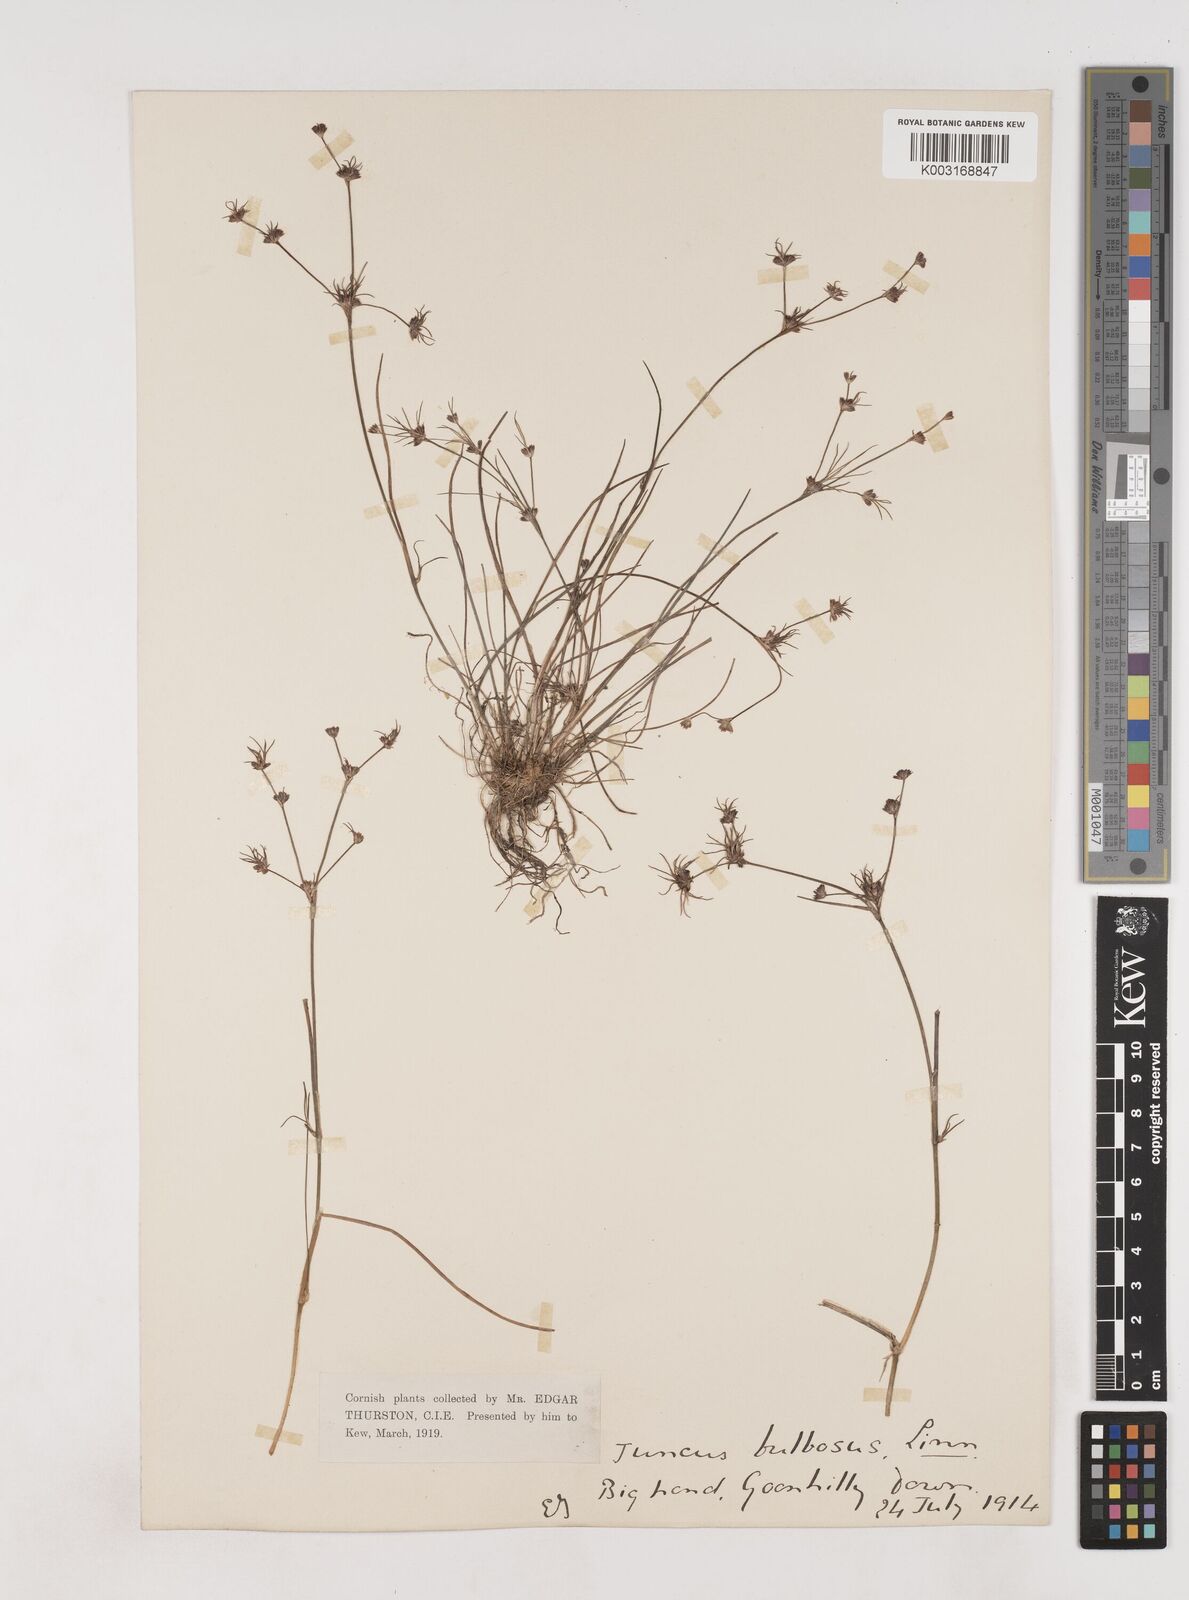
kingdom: Plantae
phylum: Tracheophyta
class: Liliopsida
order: Poales
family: Juncaceae
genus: Juncus
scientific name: Juncus bulbosus
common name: Bulbous rush
